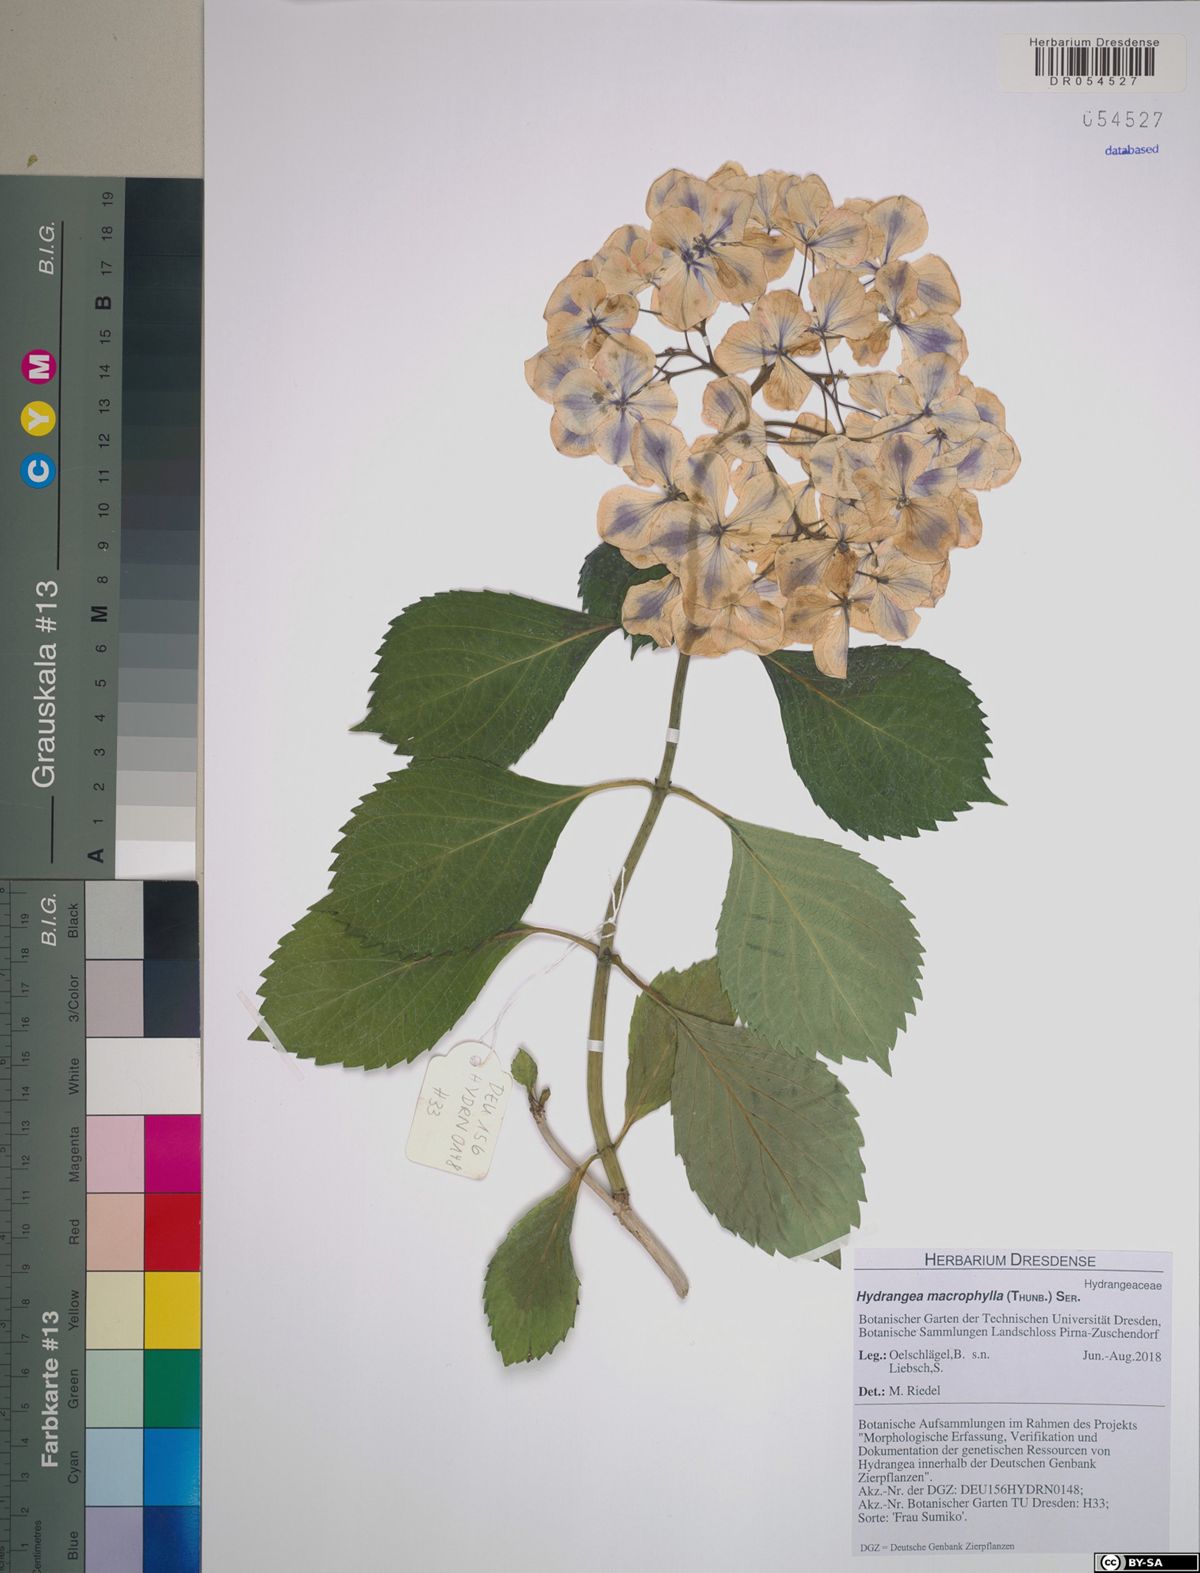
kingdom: Plantae
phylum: Tracheophyta
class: Magnoliopsida
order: Cornales
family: Hydrangeaceae
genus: Hydrangea
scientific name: Hydrangea macrophylla
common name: Hydrangea
